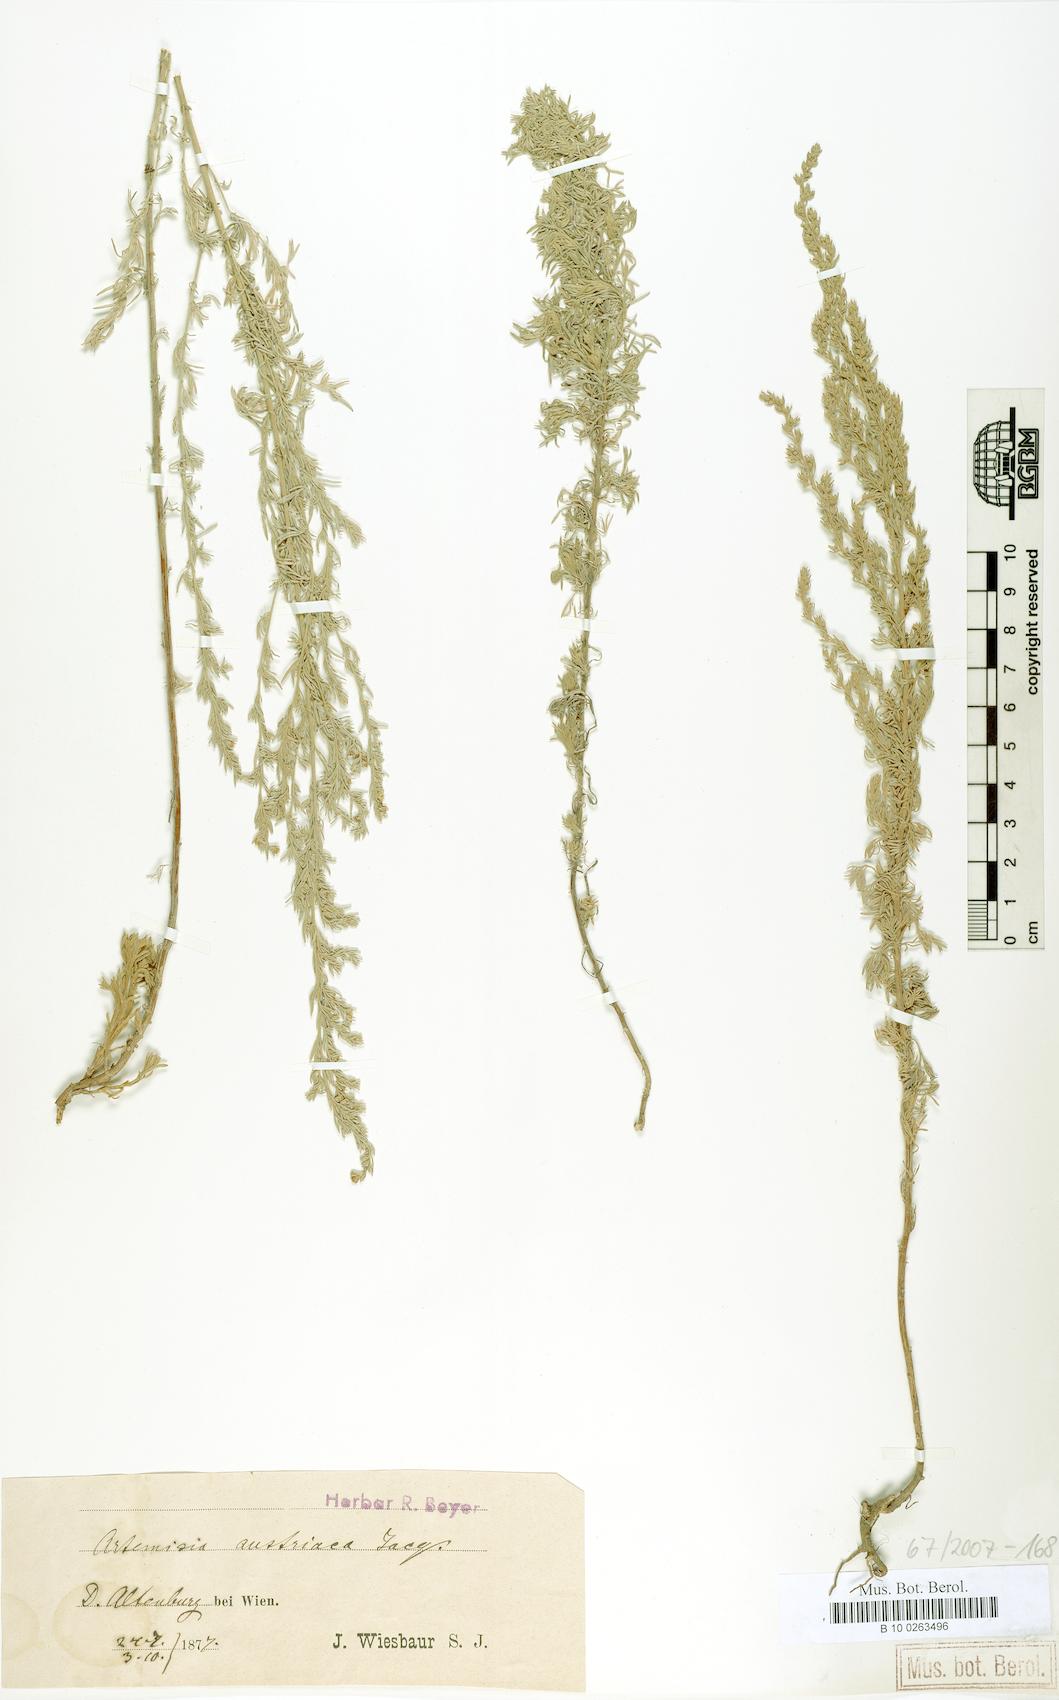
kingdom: Plantae
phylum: Tracheophyta
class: Magnoliopsida
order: Asterales
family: Asteraceae
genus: Artemisia
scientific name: Artemisia austriaca
